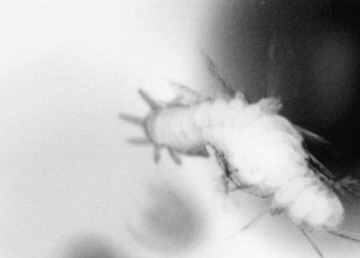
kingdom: Animalia
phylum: Annelida
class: Polychaeta
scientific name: Polychaeta
